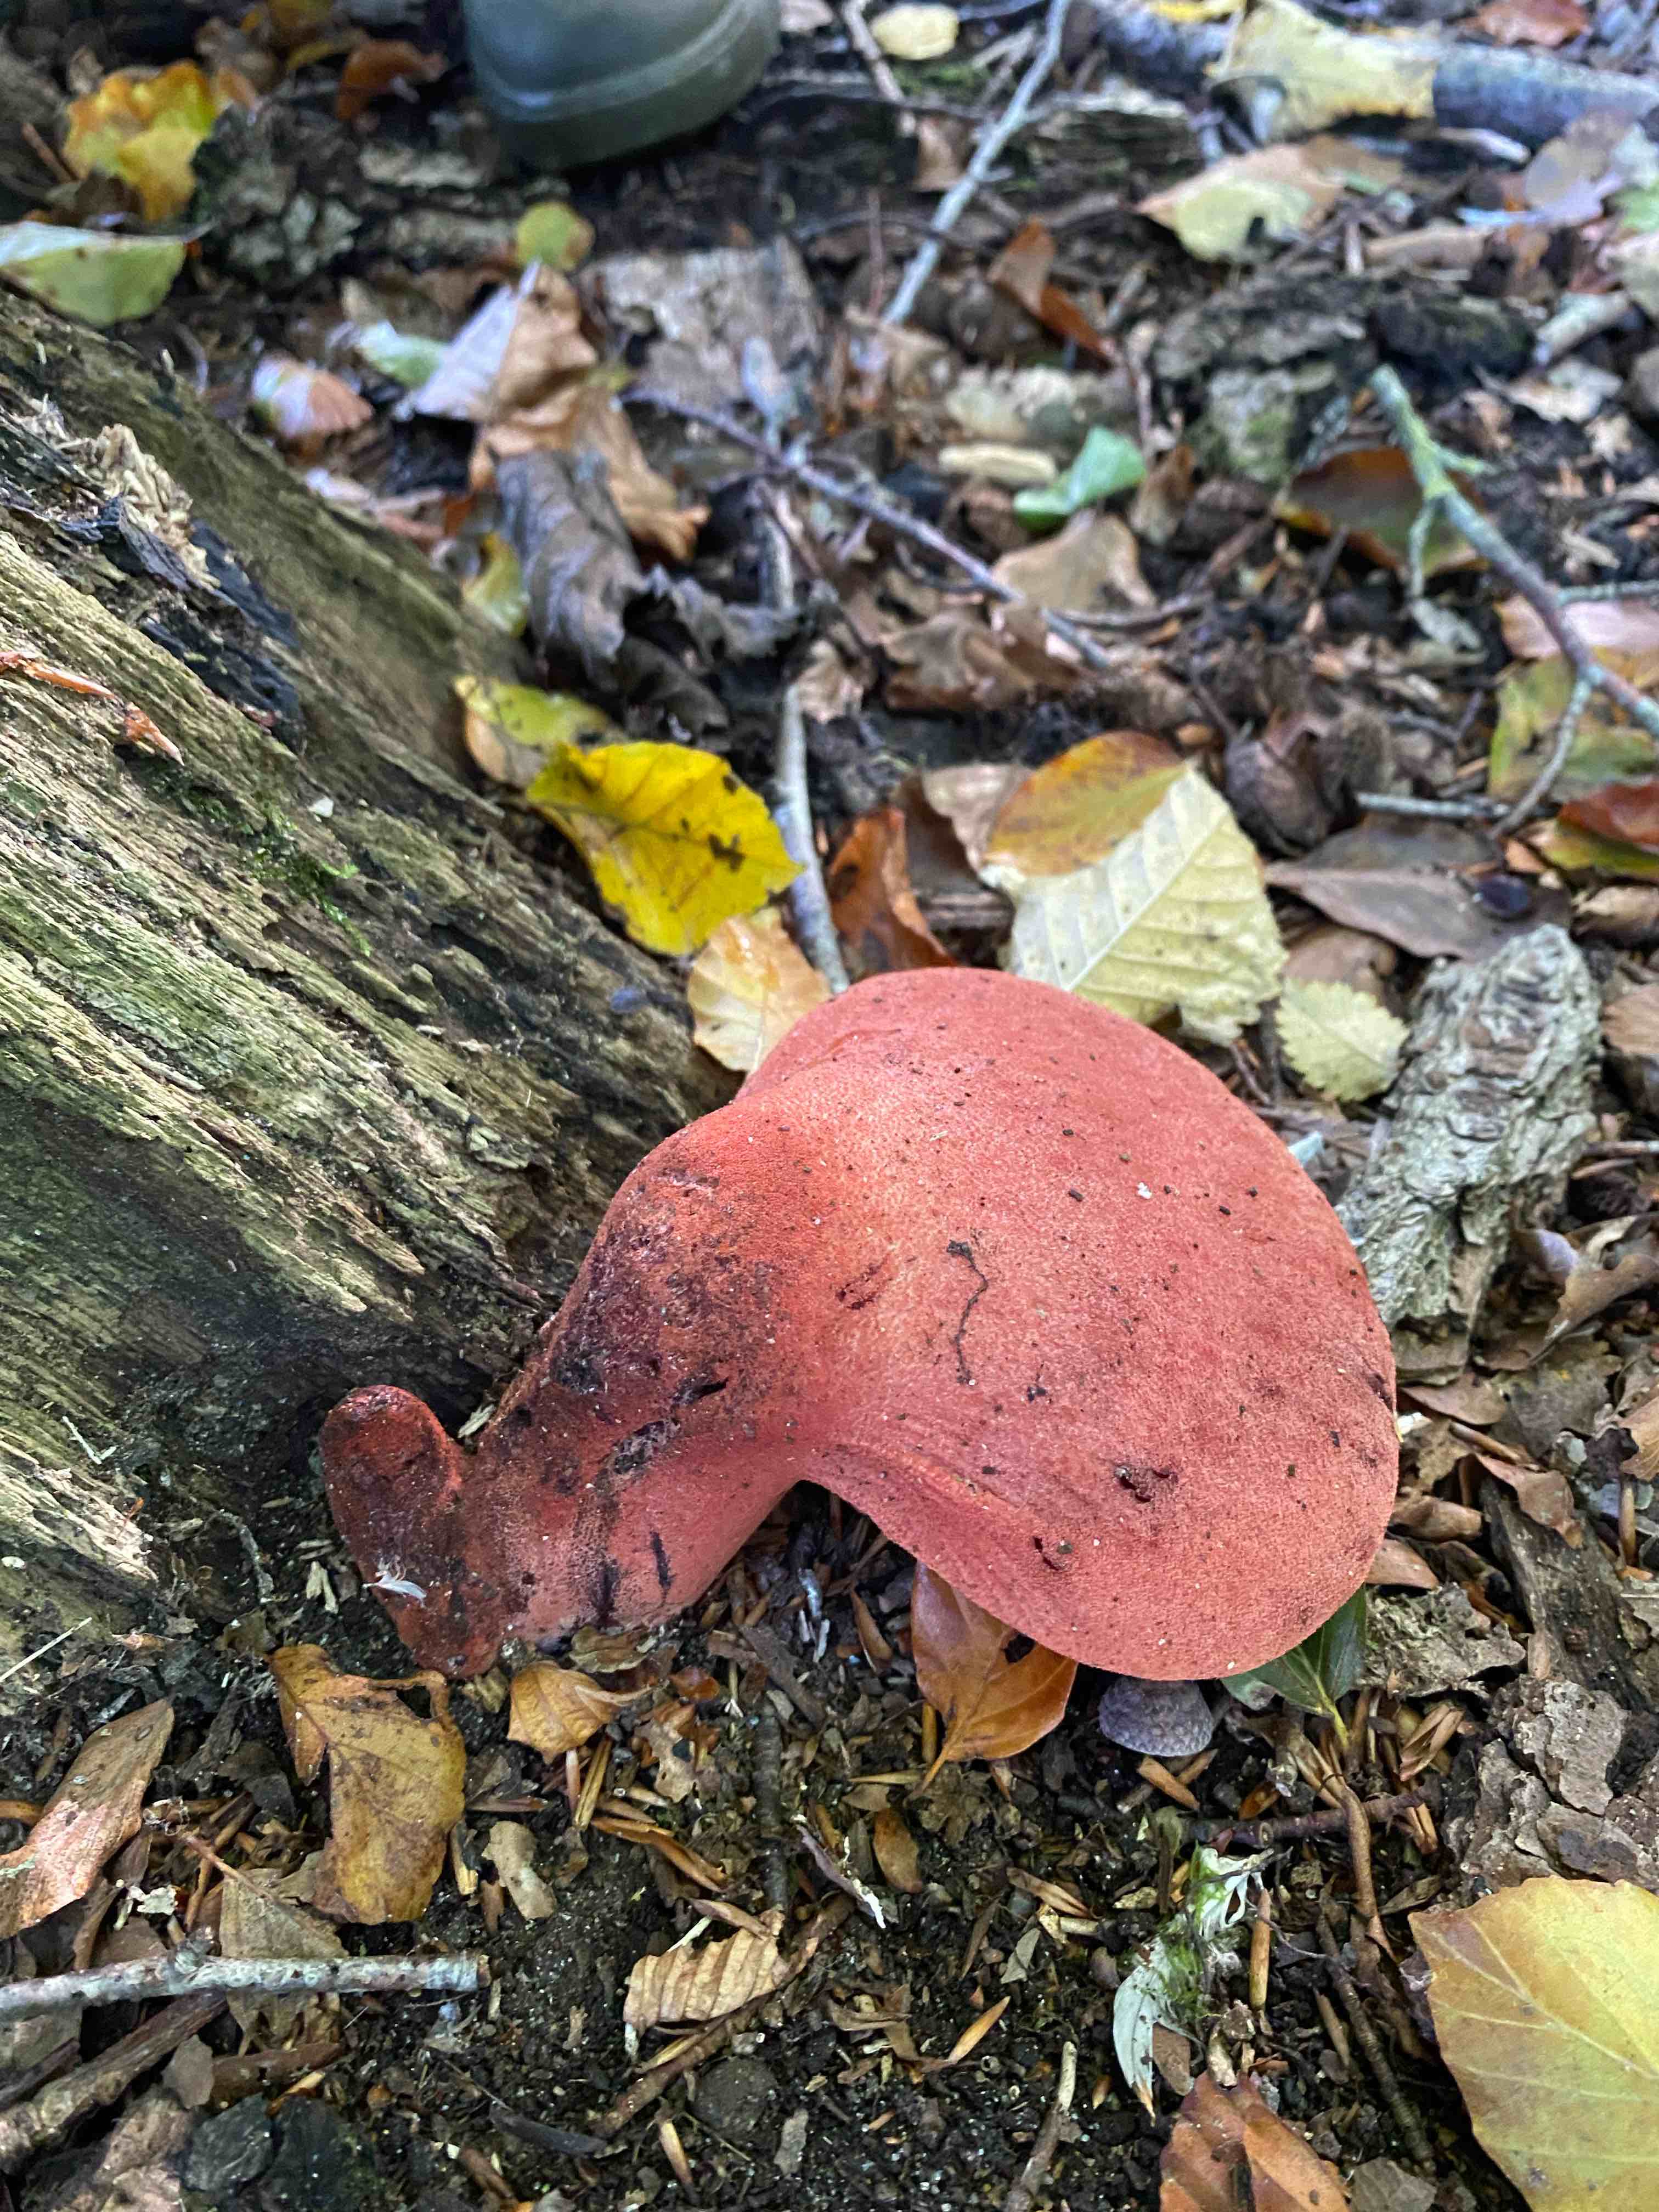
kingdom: Fungi
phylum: Basidiomycota
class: Agaricomycetes
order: Agaricales
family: Fistulinaceae
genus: Fistulina
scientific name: Fistulina hepatica
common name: oksetunge
